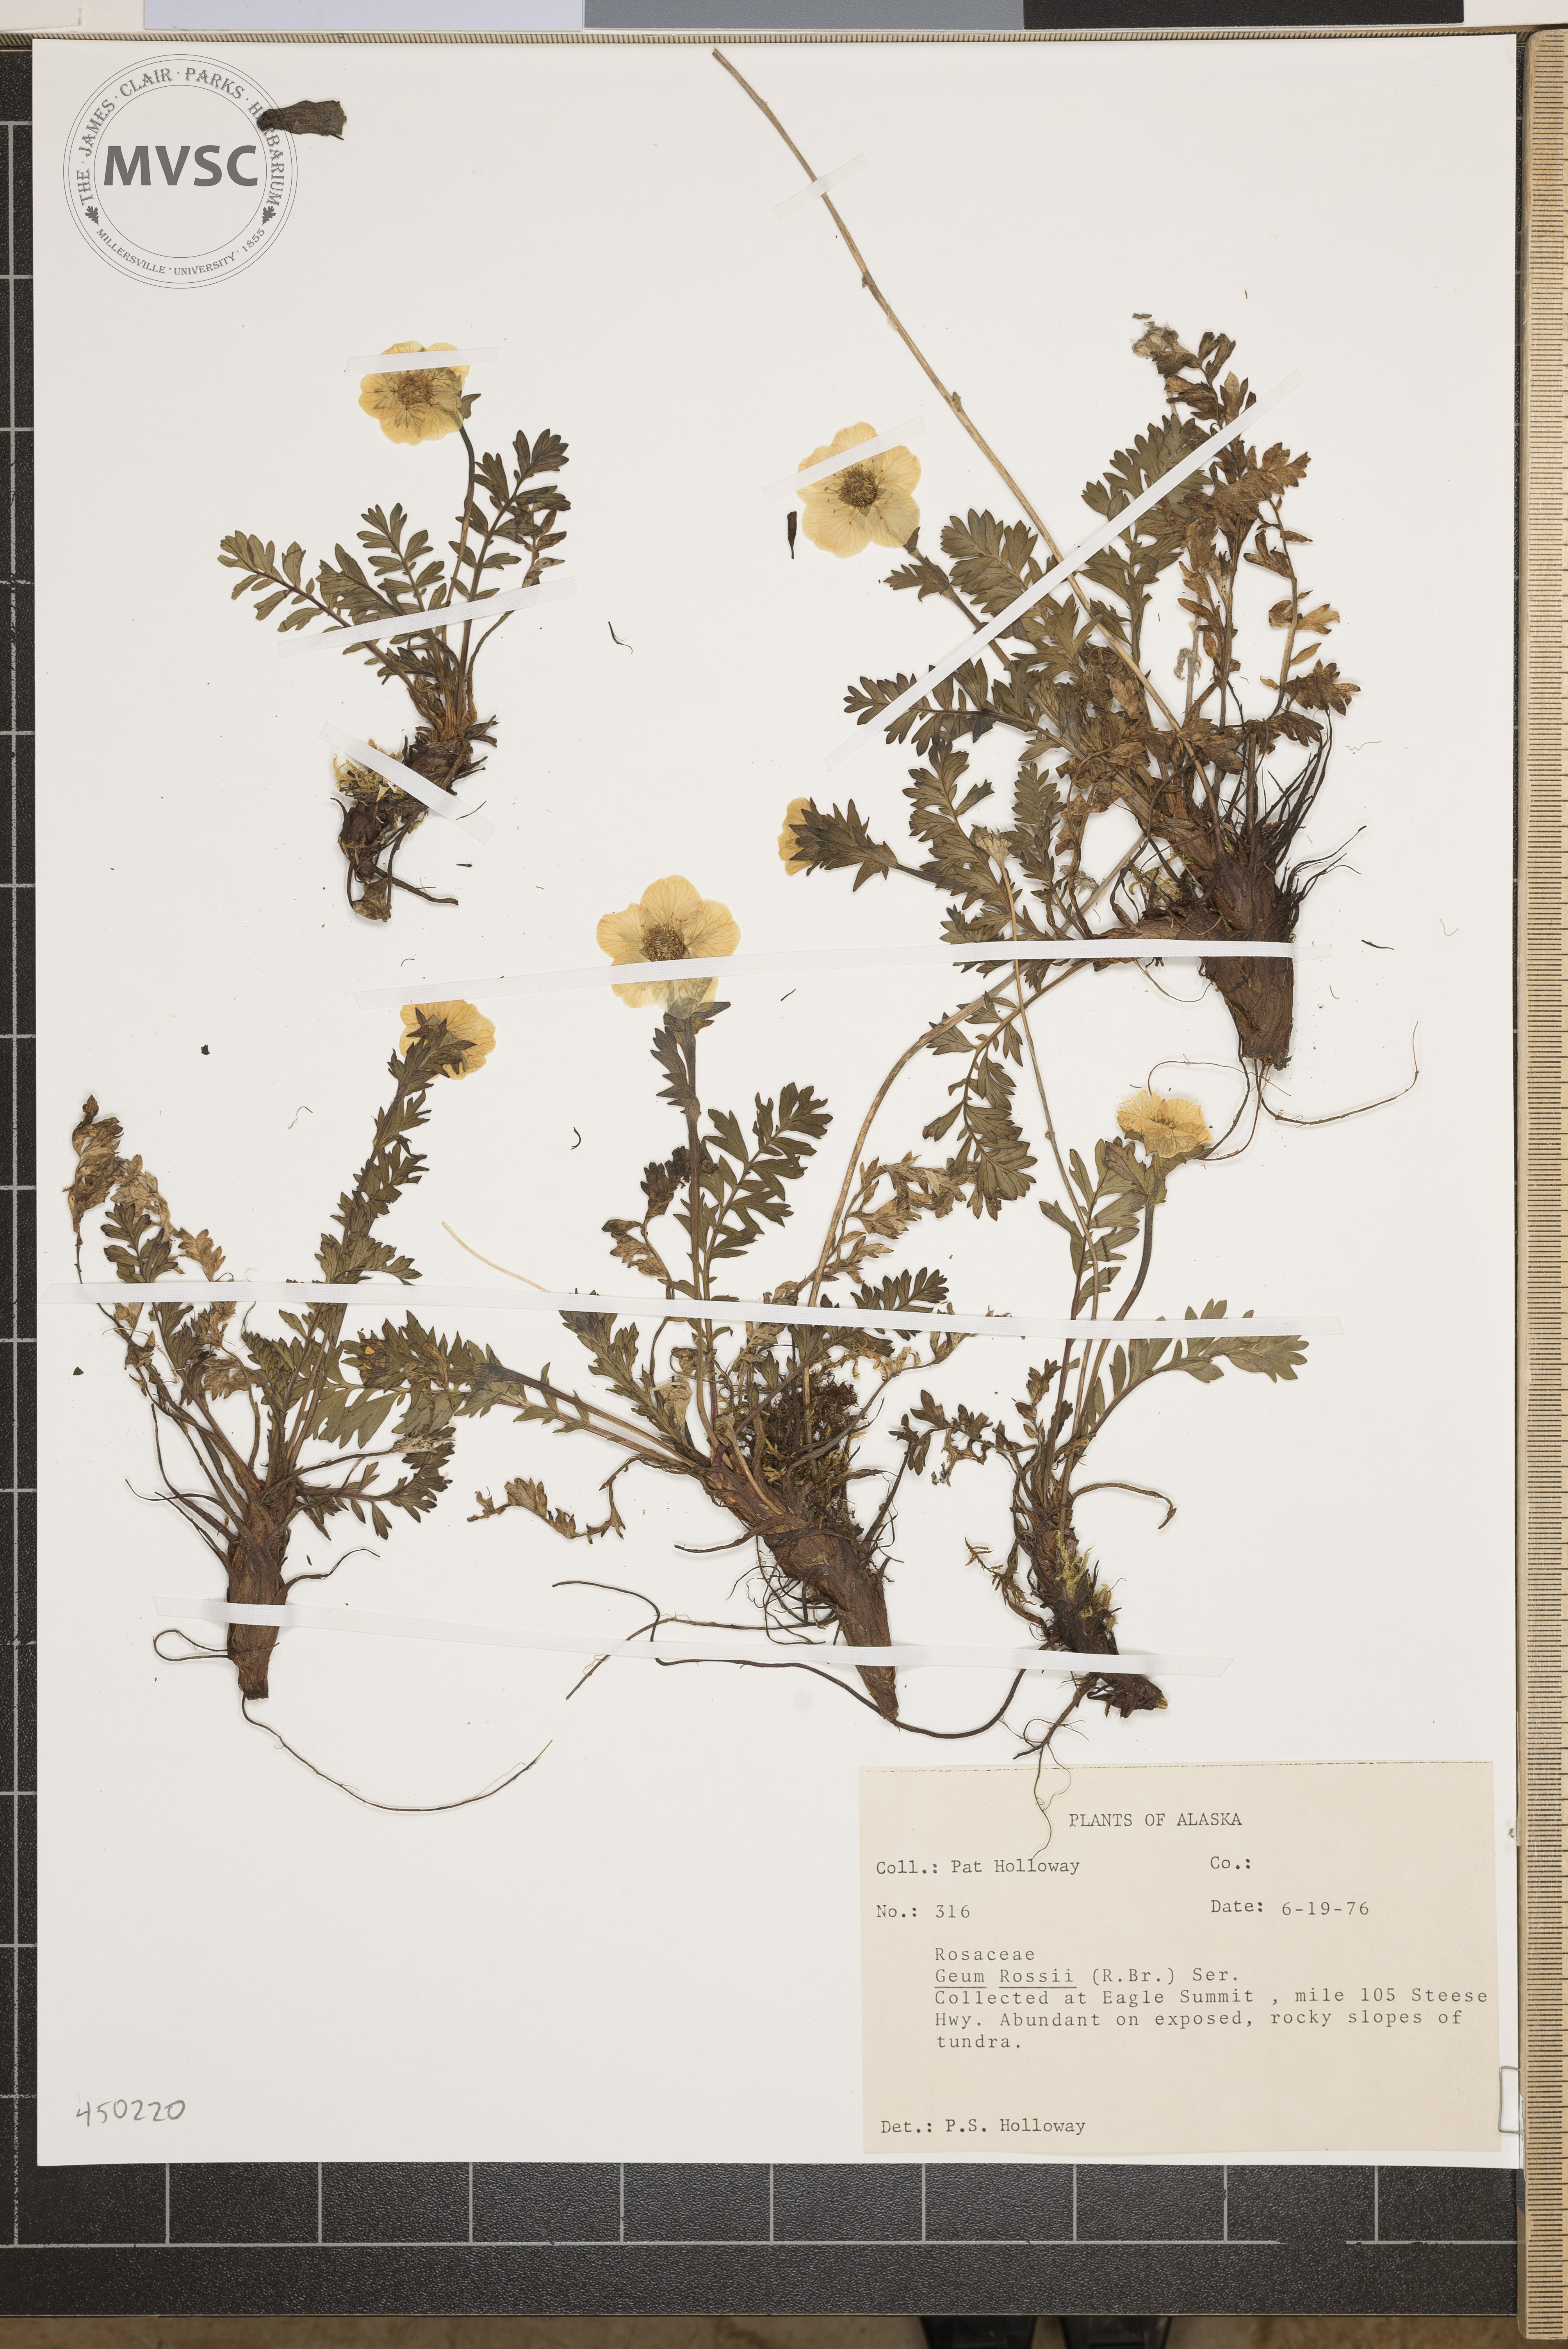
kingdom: Plantae
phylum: Tracheophyta
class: Magnoliopsida
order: Rosales
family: Rosaceae
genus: Geum
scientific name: Geum rossii
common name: Alpine avens
